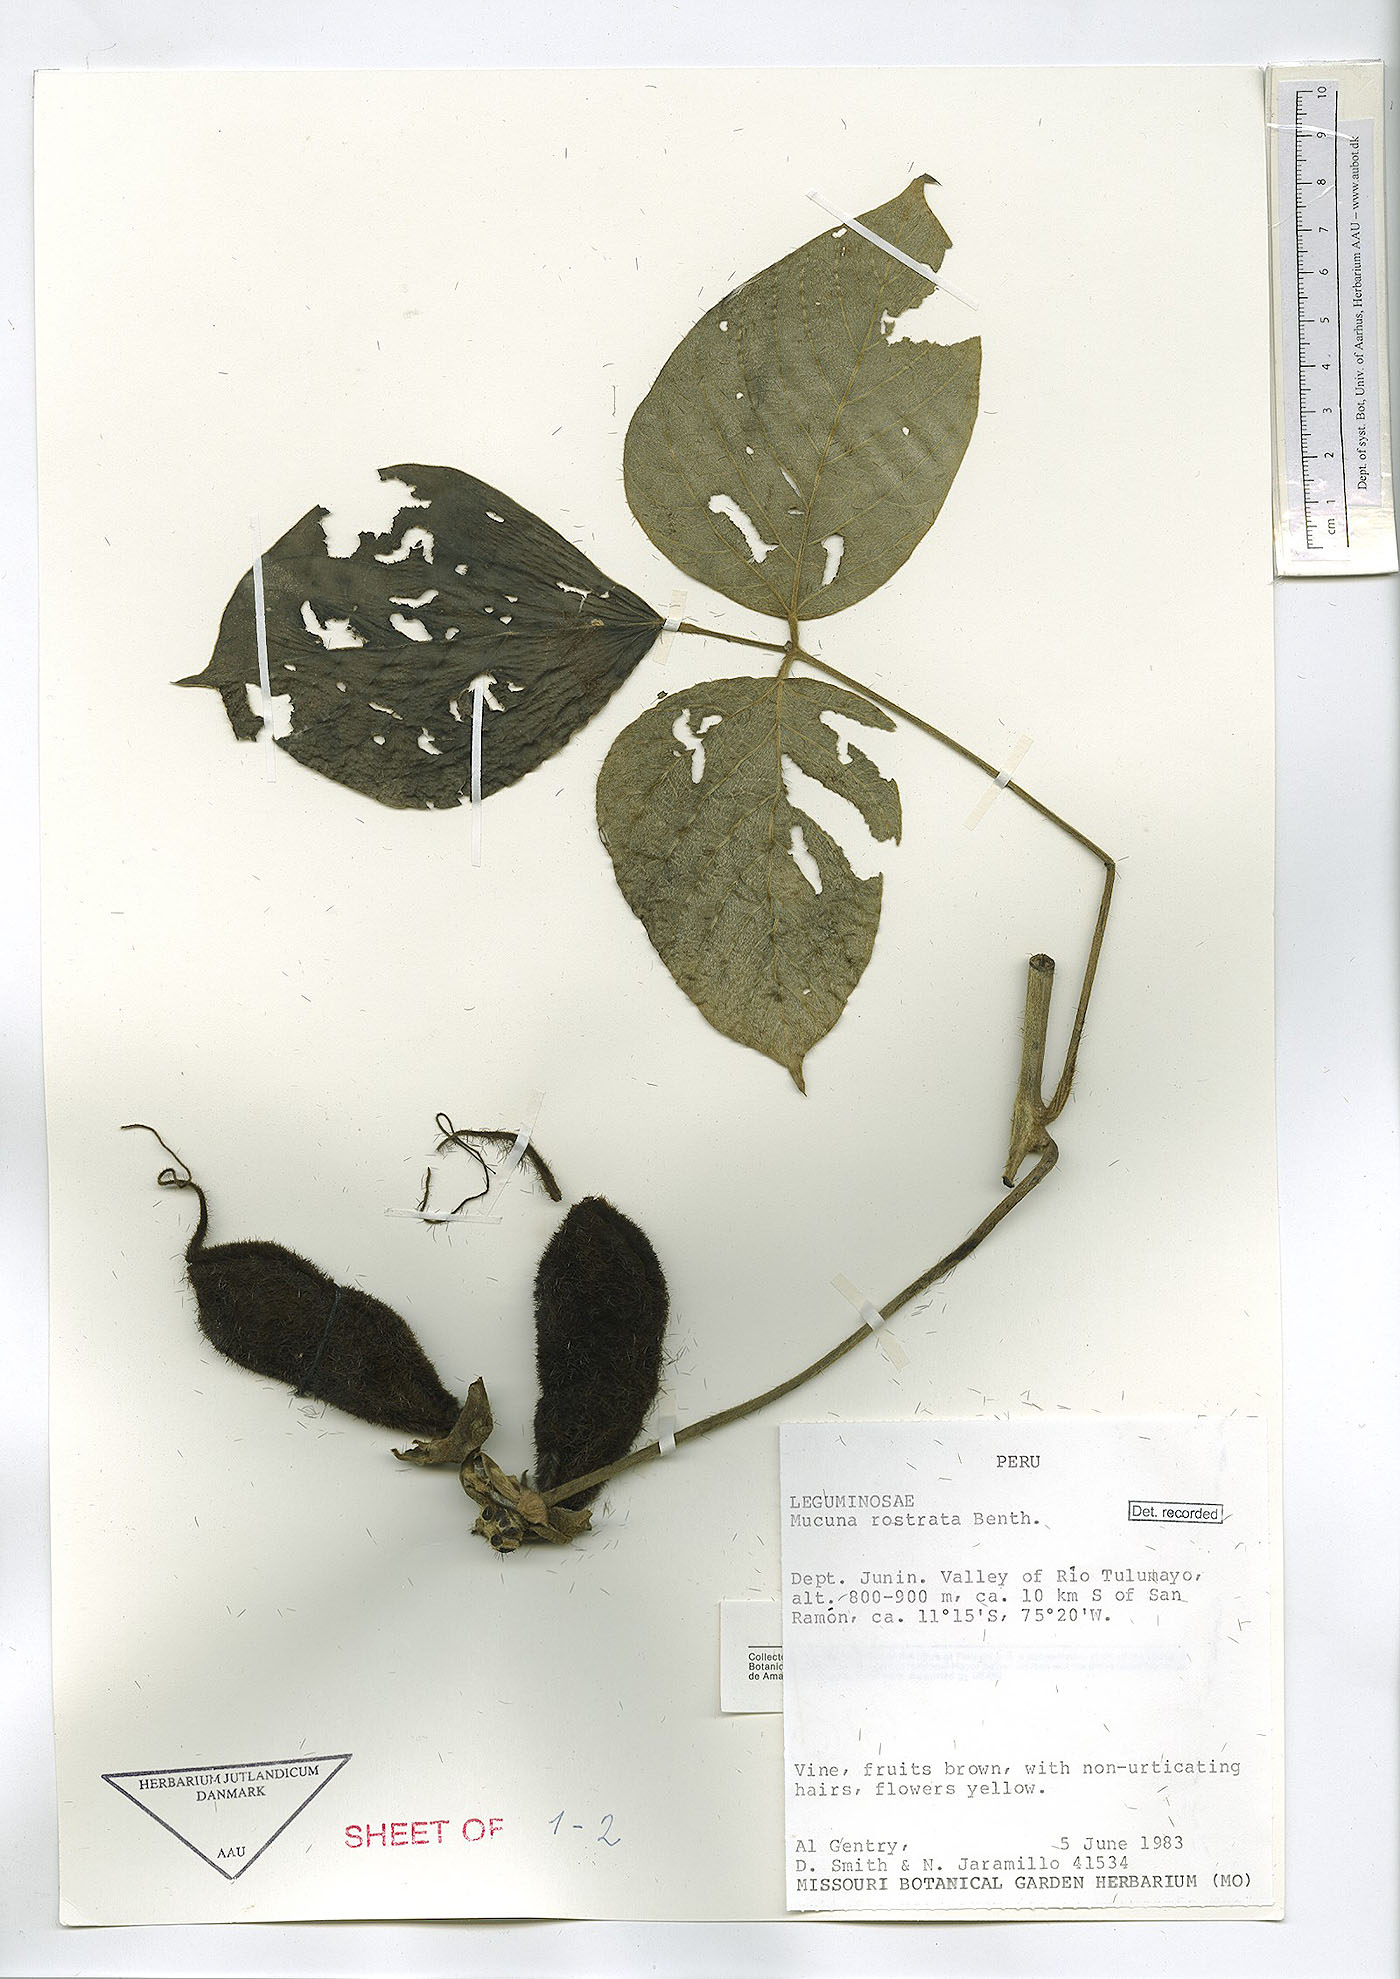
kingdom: Plantae
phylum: Tracheophyta
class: Magnoliopsida
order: Fabales
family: Fabaceae
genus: Mucuna
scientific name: Mucuna rostrata
